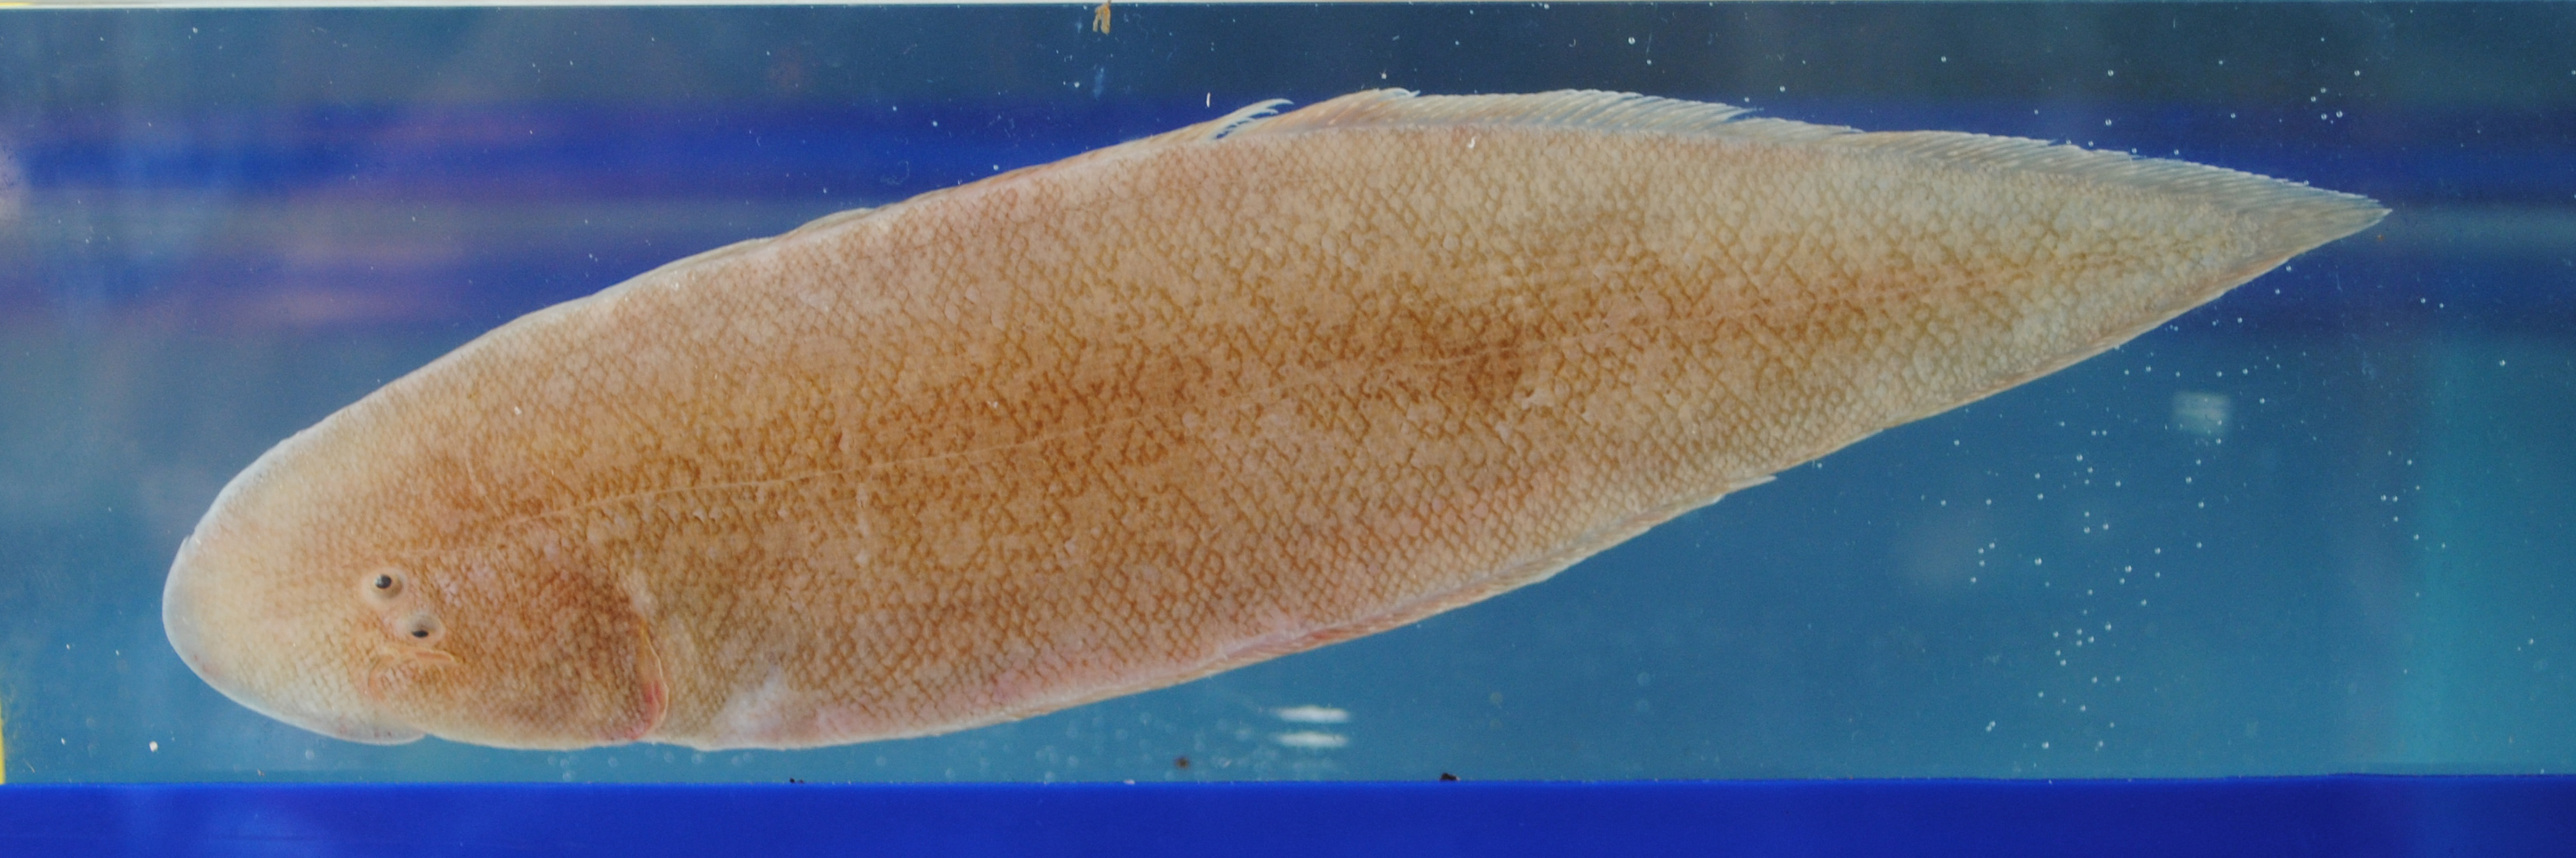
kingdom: Animalia
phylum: Chordata
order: Pleuronectiformes
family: Cynoglossidae
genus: Cynoglossus
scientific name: Cynoglossus
